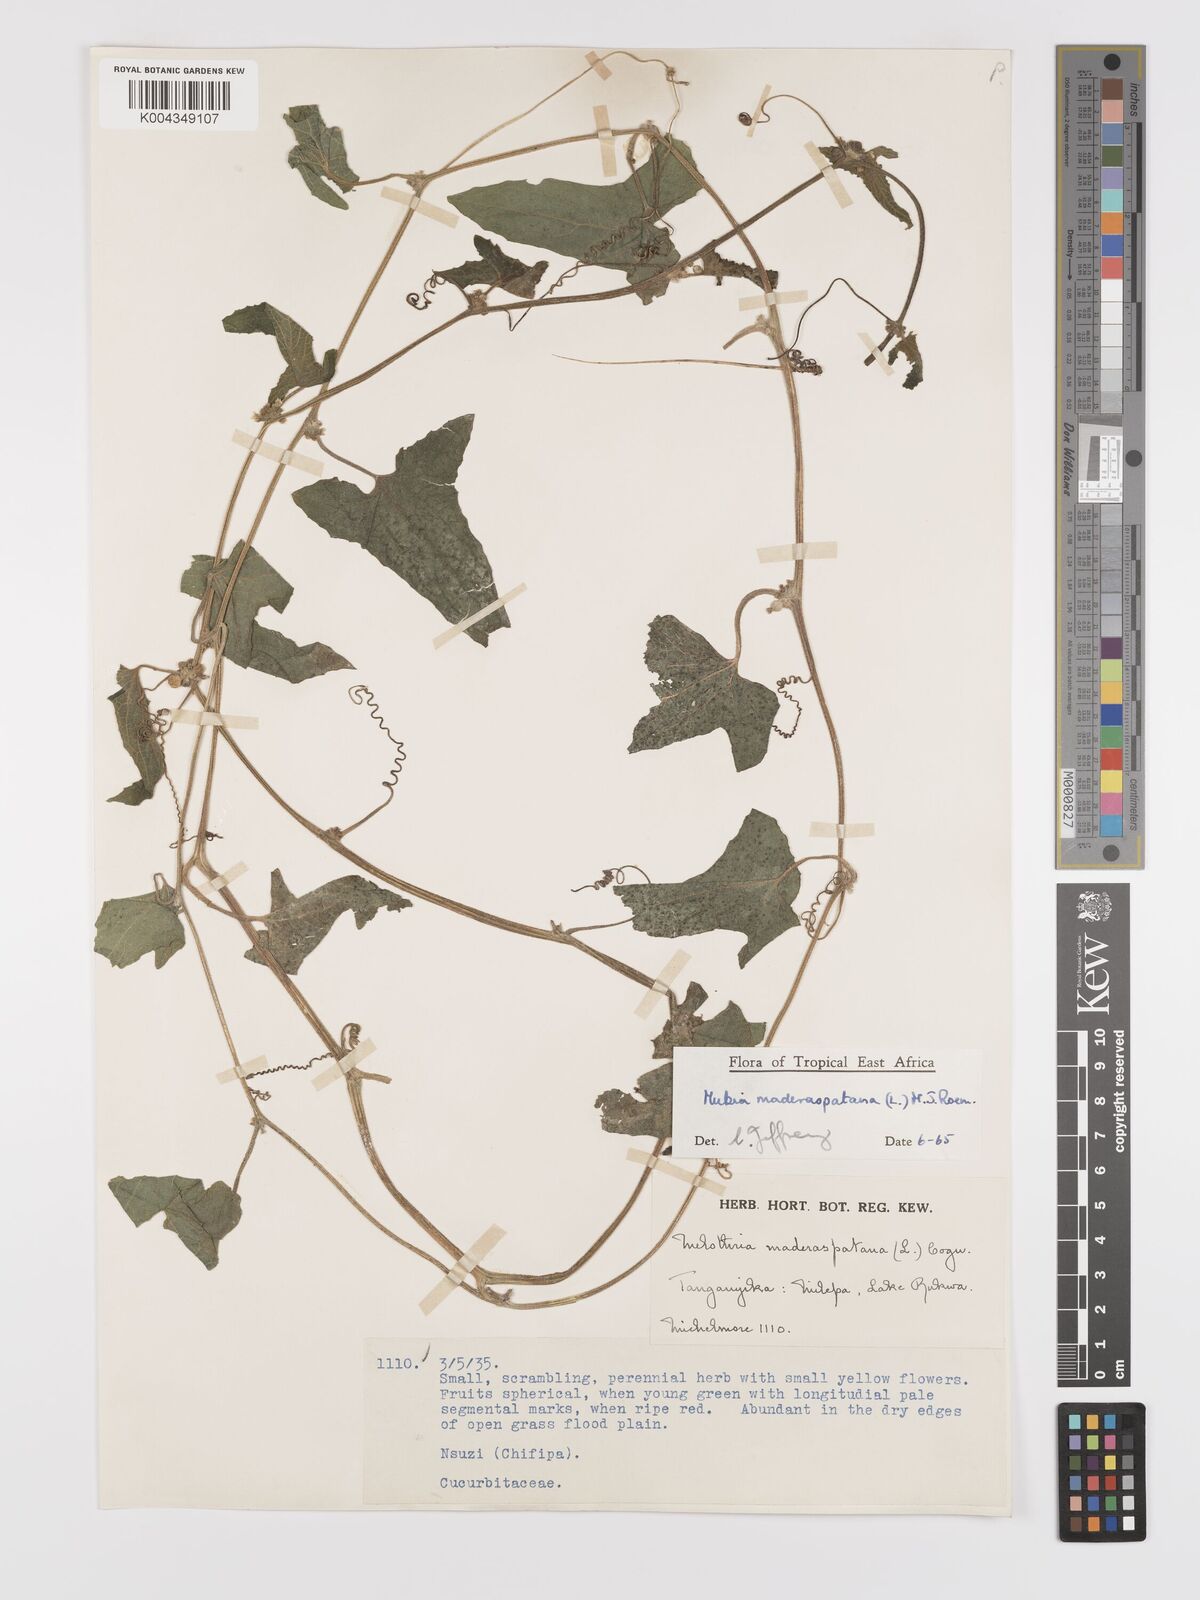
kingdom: Plantae
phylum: Tracheophyta
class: Magnoliopsida
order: Cucurbitales
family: Cucurbitaceae
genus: Cucumis
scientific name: Cucumis maderaspatanus
